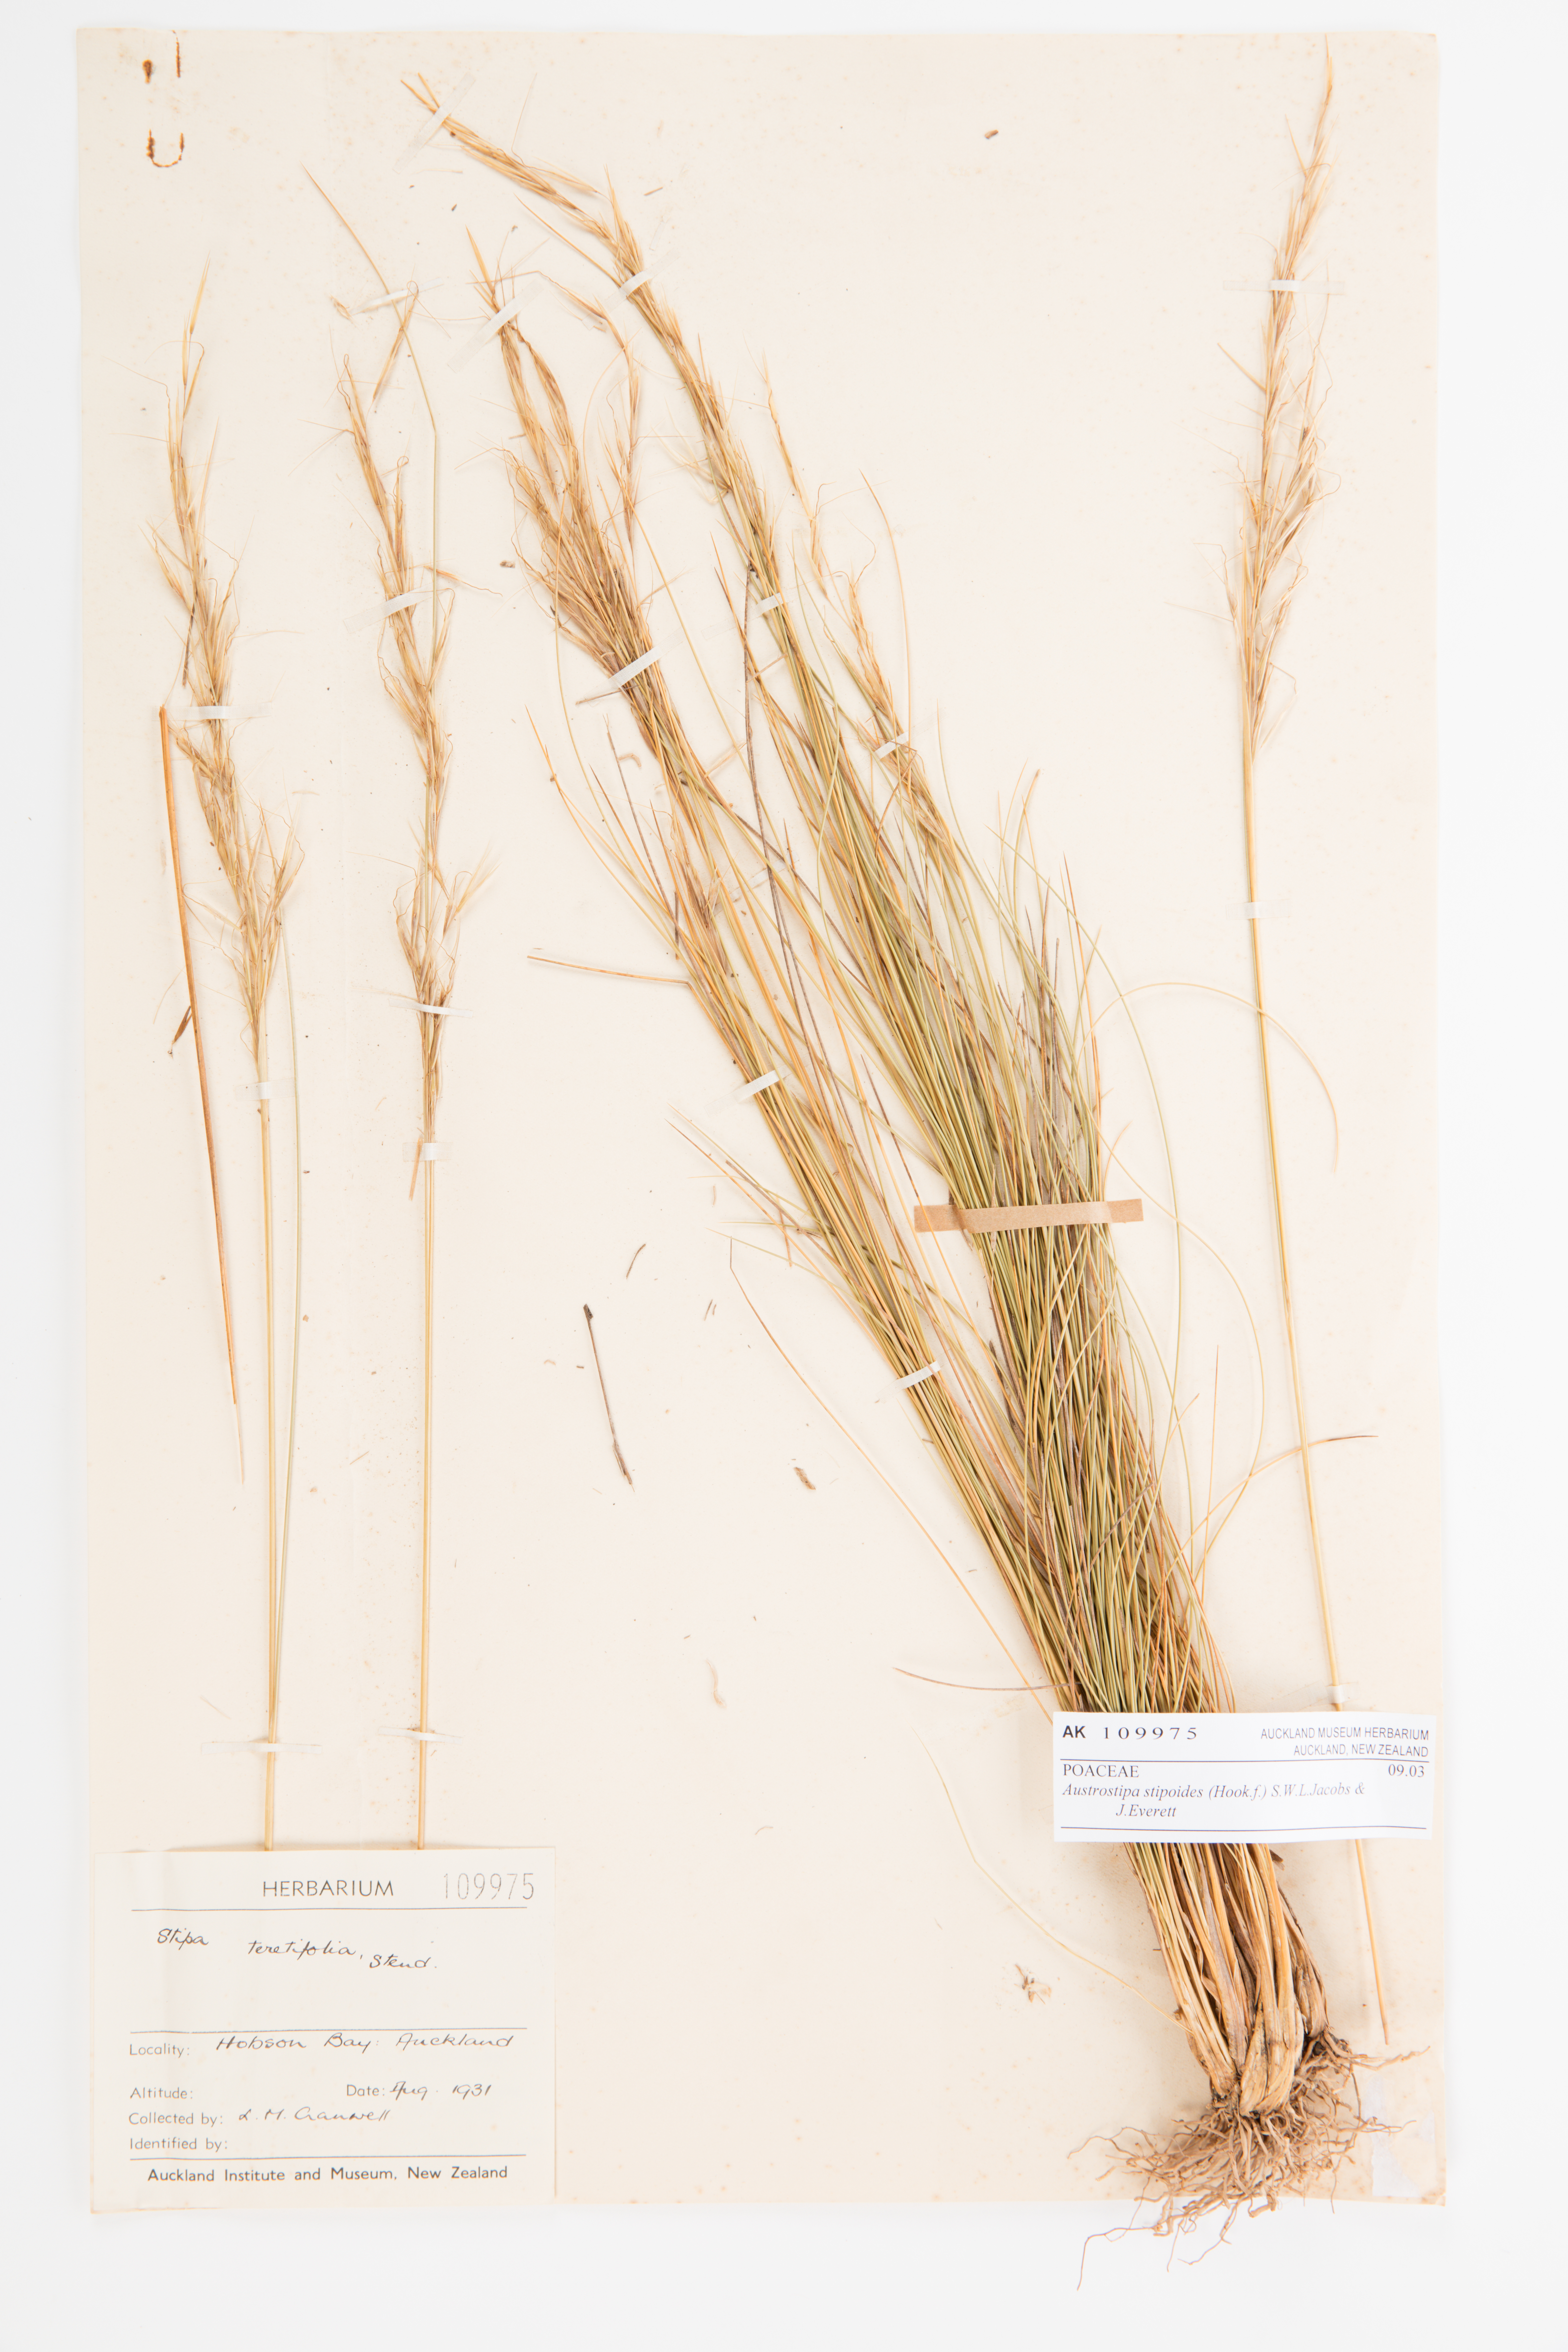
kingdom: Plantae
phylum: Tracheophyta
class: Liliopsida
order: Poales
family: Poaceae
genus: Austrostipa
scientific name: Austrostipa stipoides
